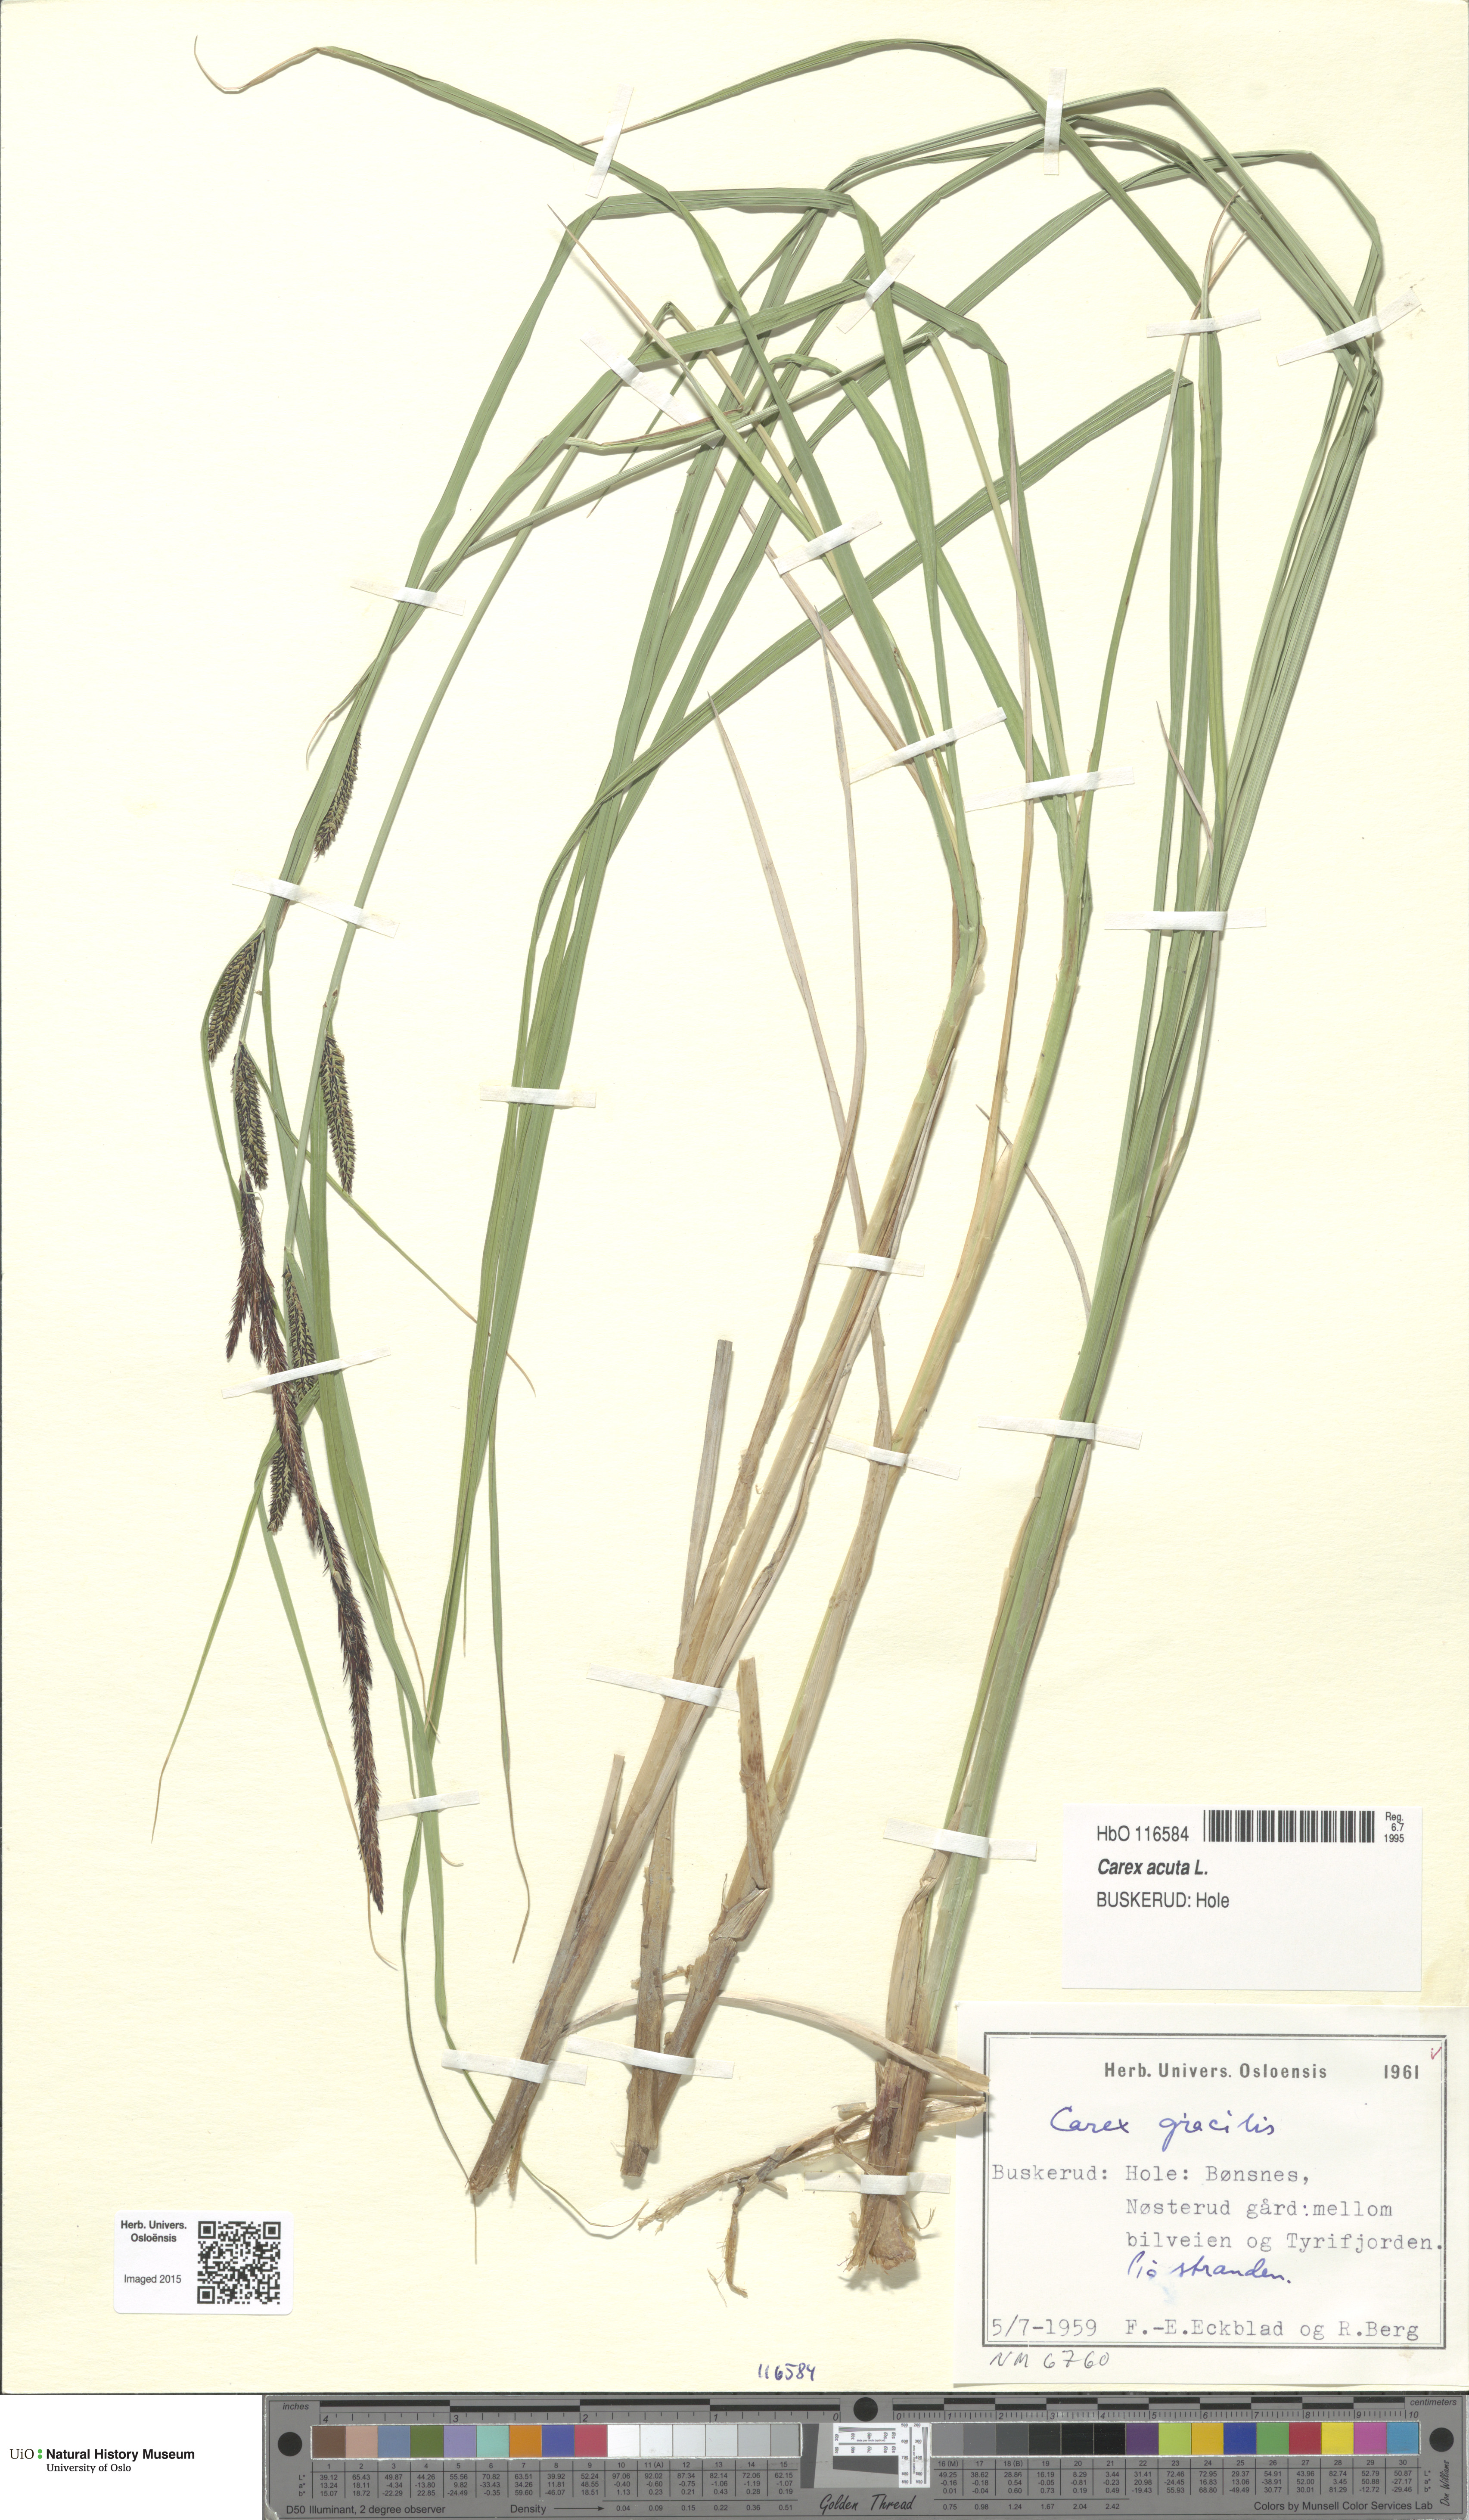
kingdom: Plantae
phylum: Tracheophyta
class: Liliopsida
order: Poales
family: Cyperaceae
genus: Carex
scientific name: Carex acuta
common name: Slender tufted-sedge
